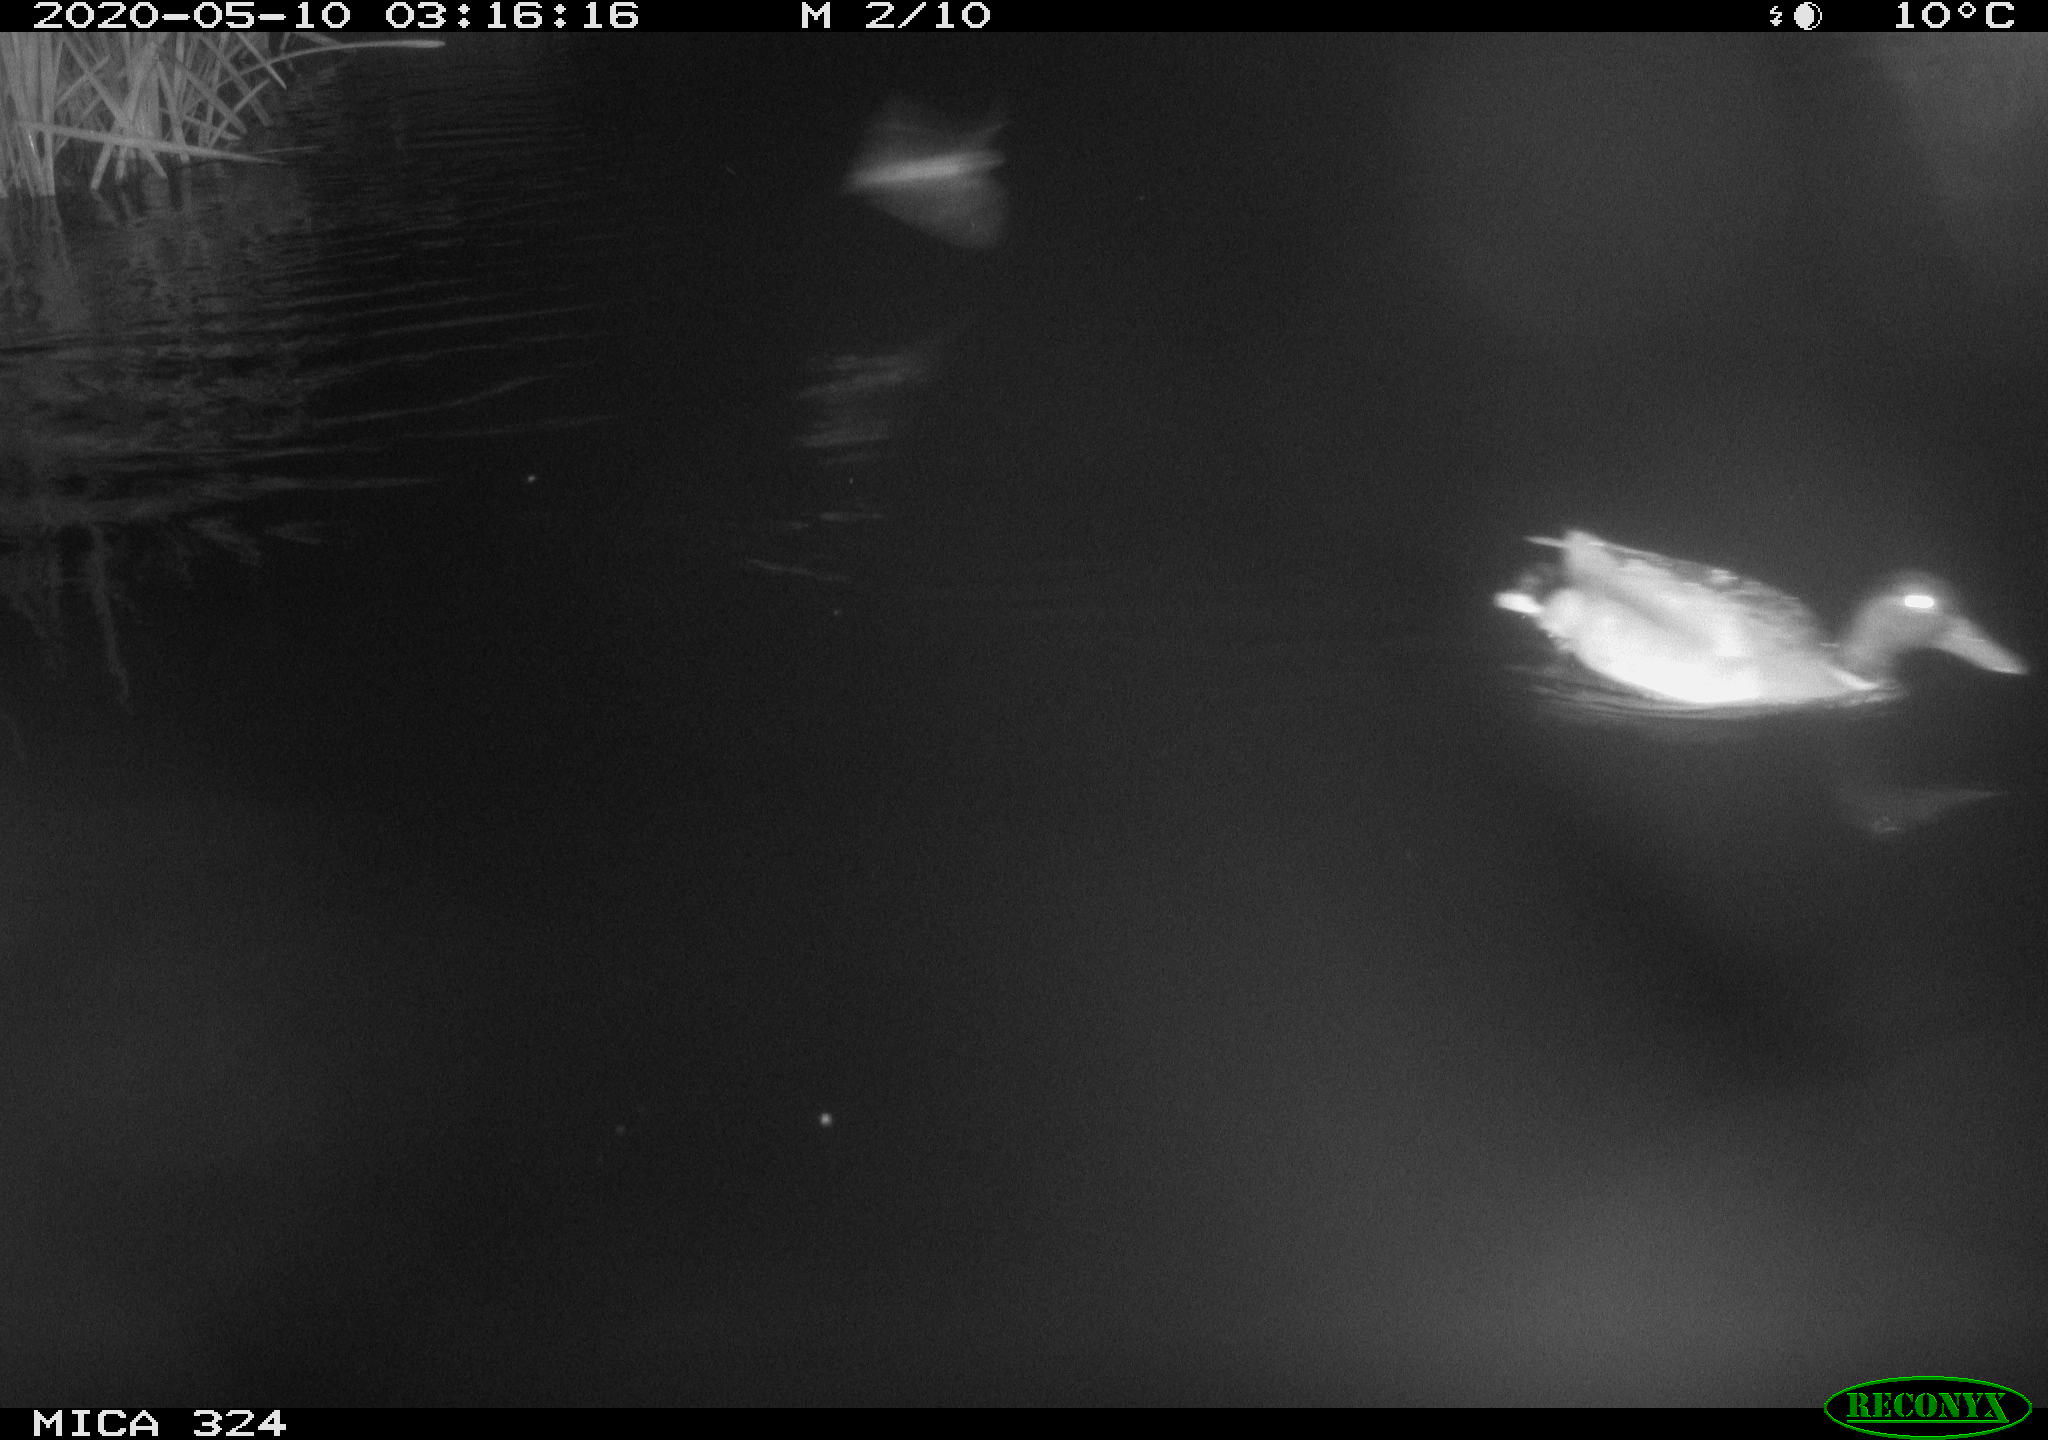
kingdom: Animalia
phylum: Chordata
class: Aves
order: Anseriformes
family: Anatidae
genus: Anas
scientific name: Anas platyrhynchos
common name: Mallard
